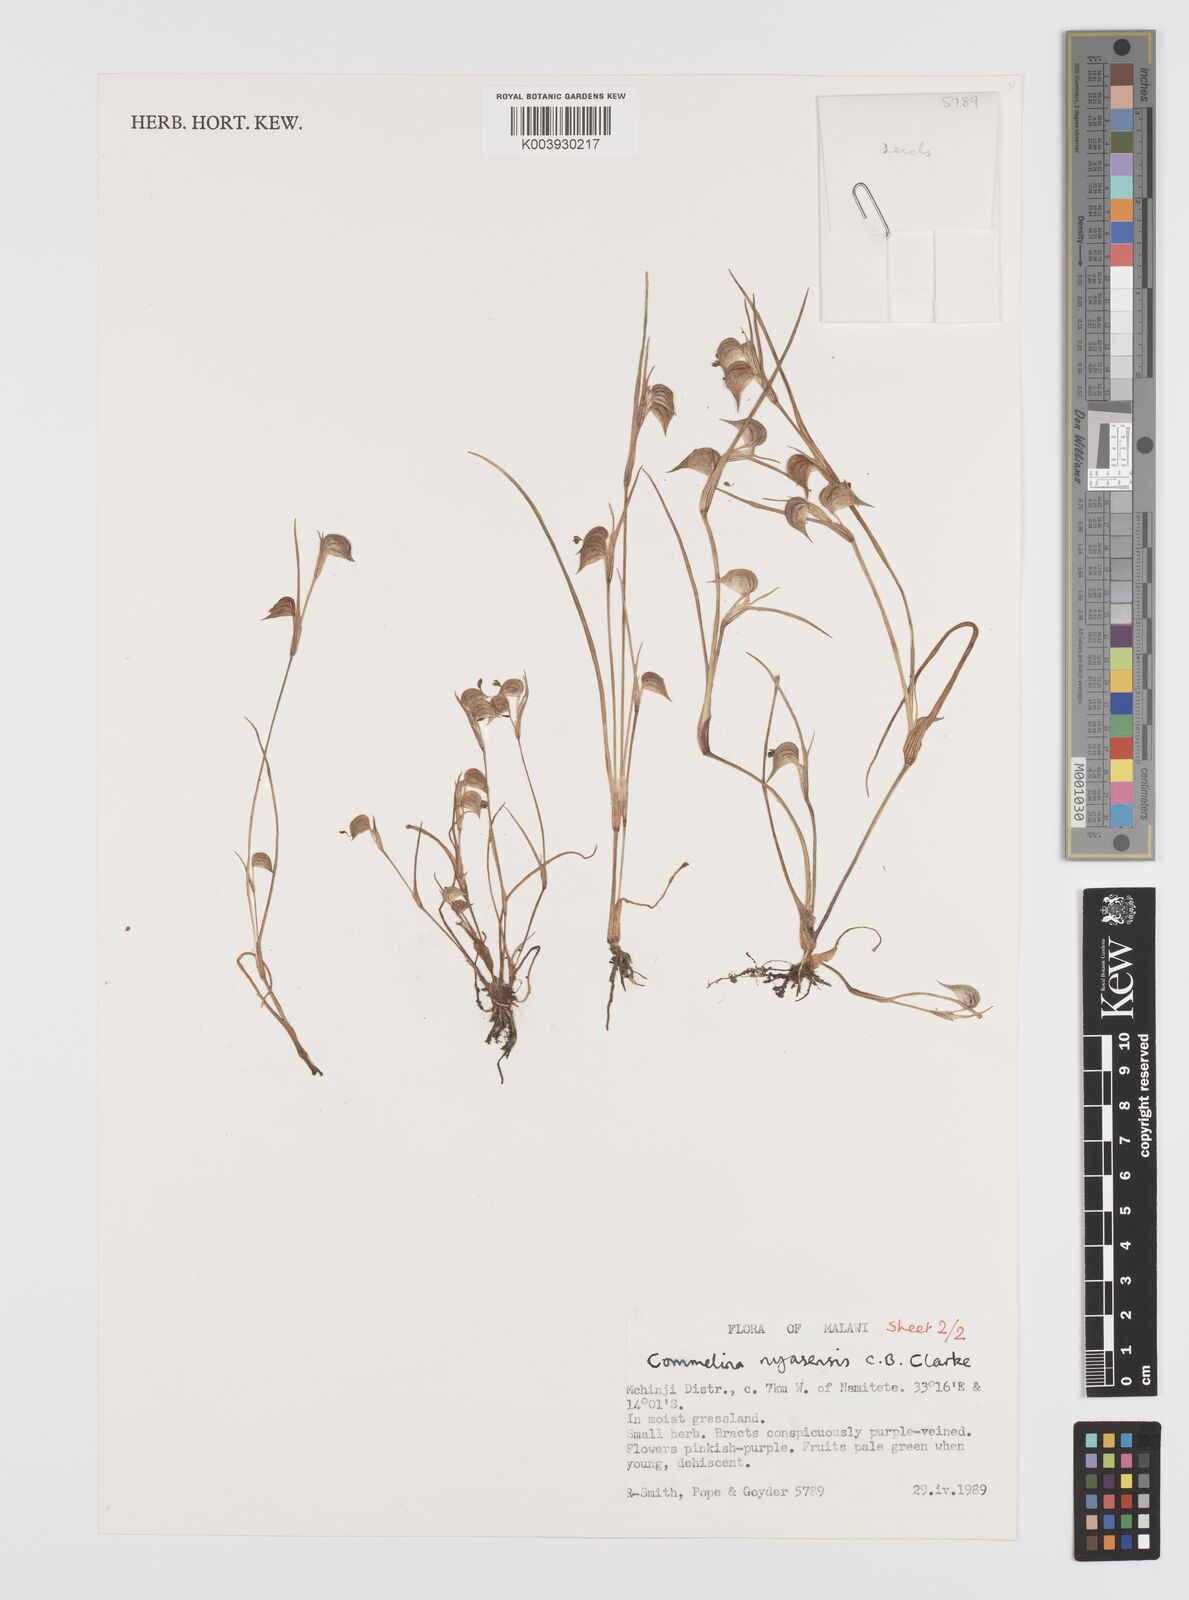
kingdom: Plantae
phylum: Tracheophyta
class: Liliopsida
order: Commelinales
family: Commelinaceae
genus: Commelina
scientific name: Commelina nyasensis
